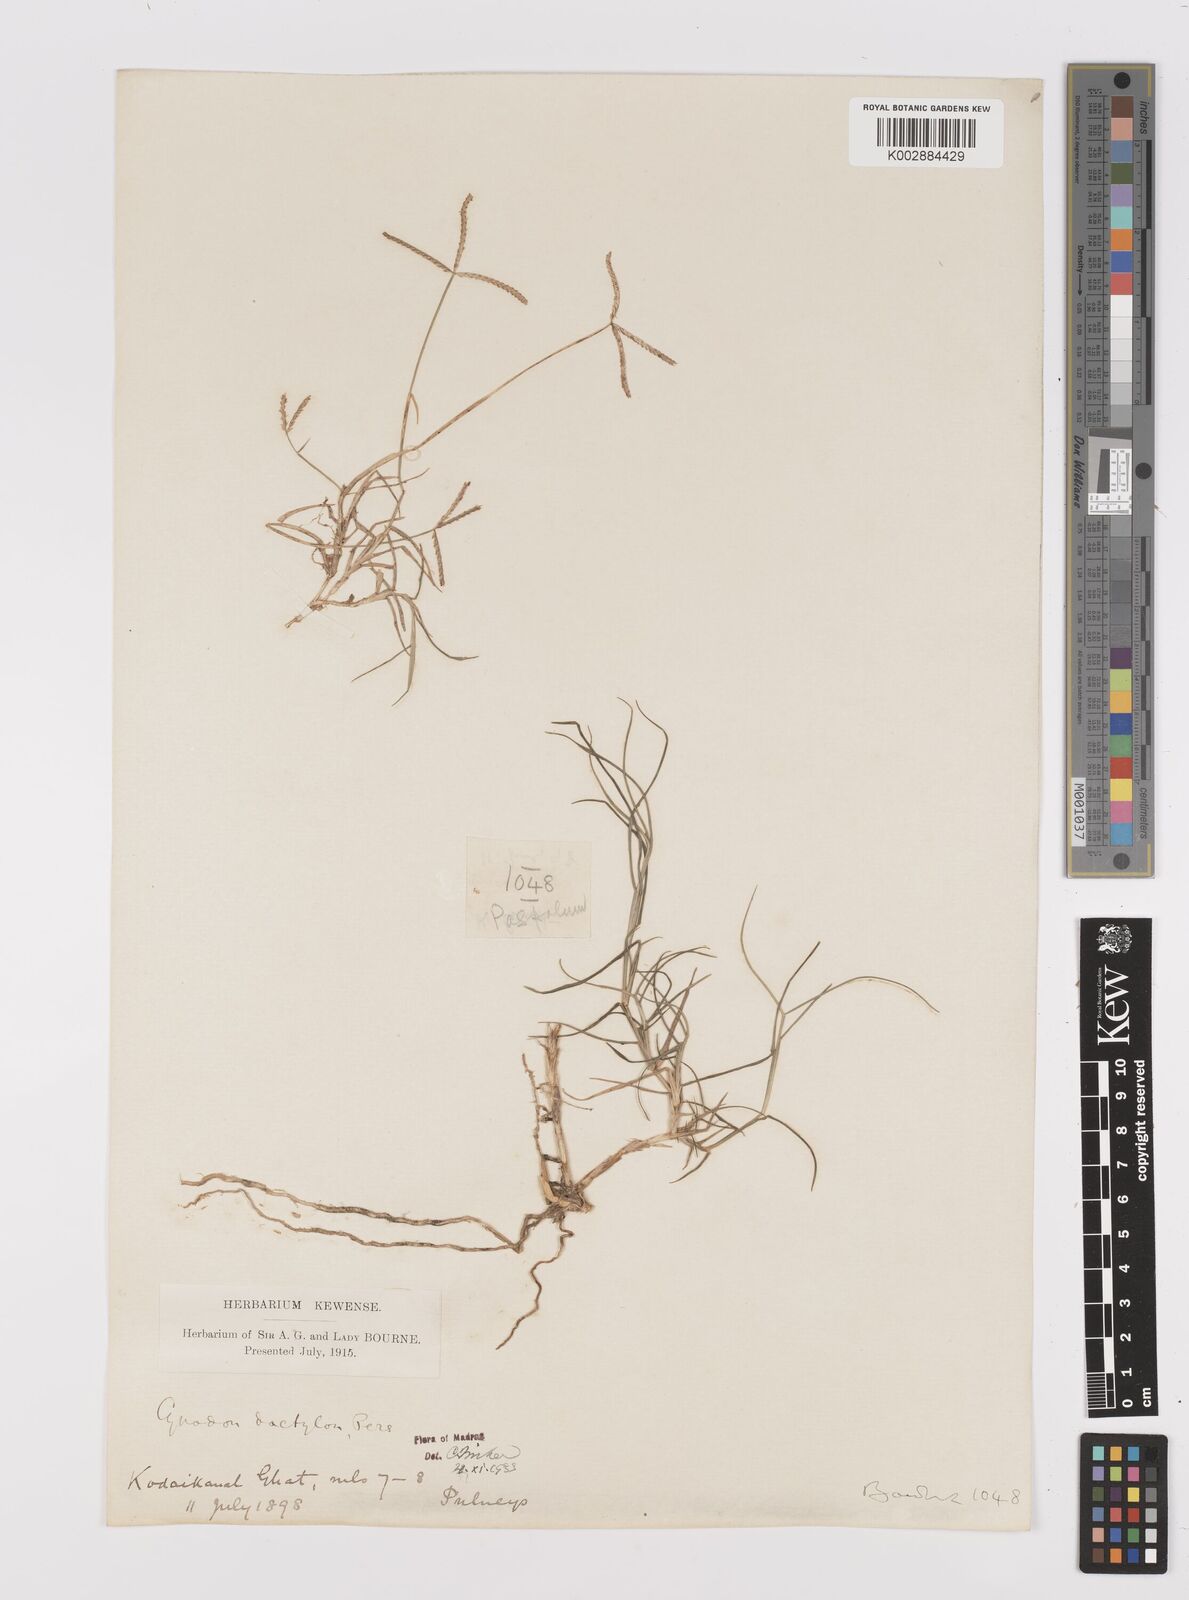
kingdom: Plantae
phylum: Tracheophyta
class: Liliopsida
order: Poales
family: Poaceae
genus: Cynodon
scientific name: Cynodon dactylon
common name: Bermuda grass
